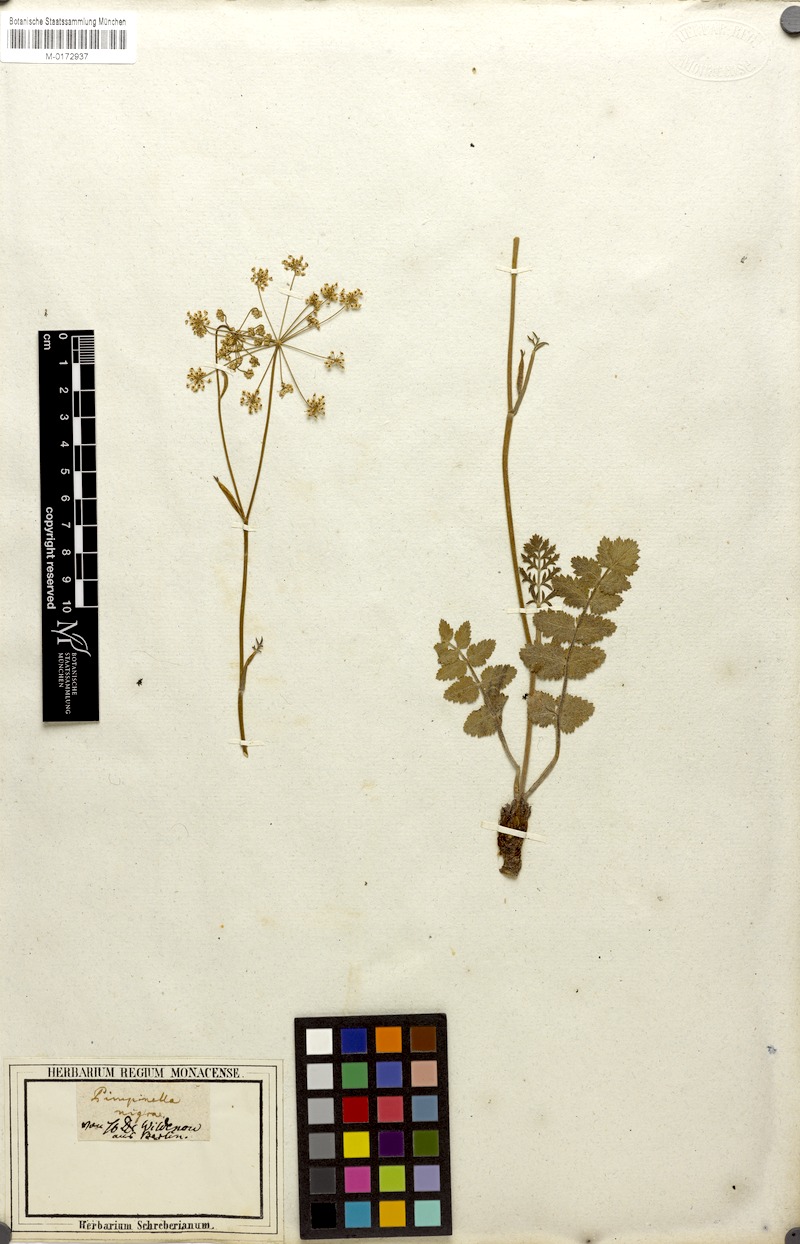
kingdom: Plantae
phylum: Tracheophyta
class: Magnoliopsida
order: Apiales
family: Apiaceae
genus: Pimpinella
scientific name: Pimpinella saxifraga
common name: Burnet-saxifrage
